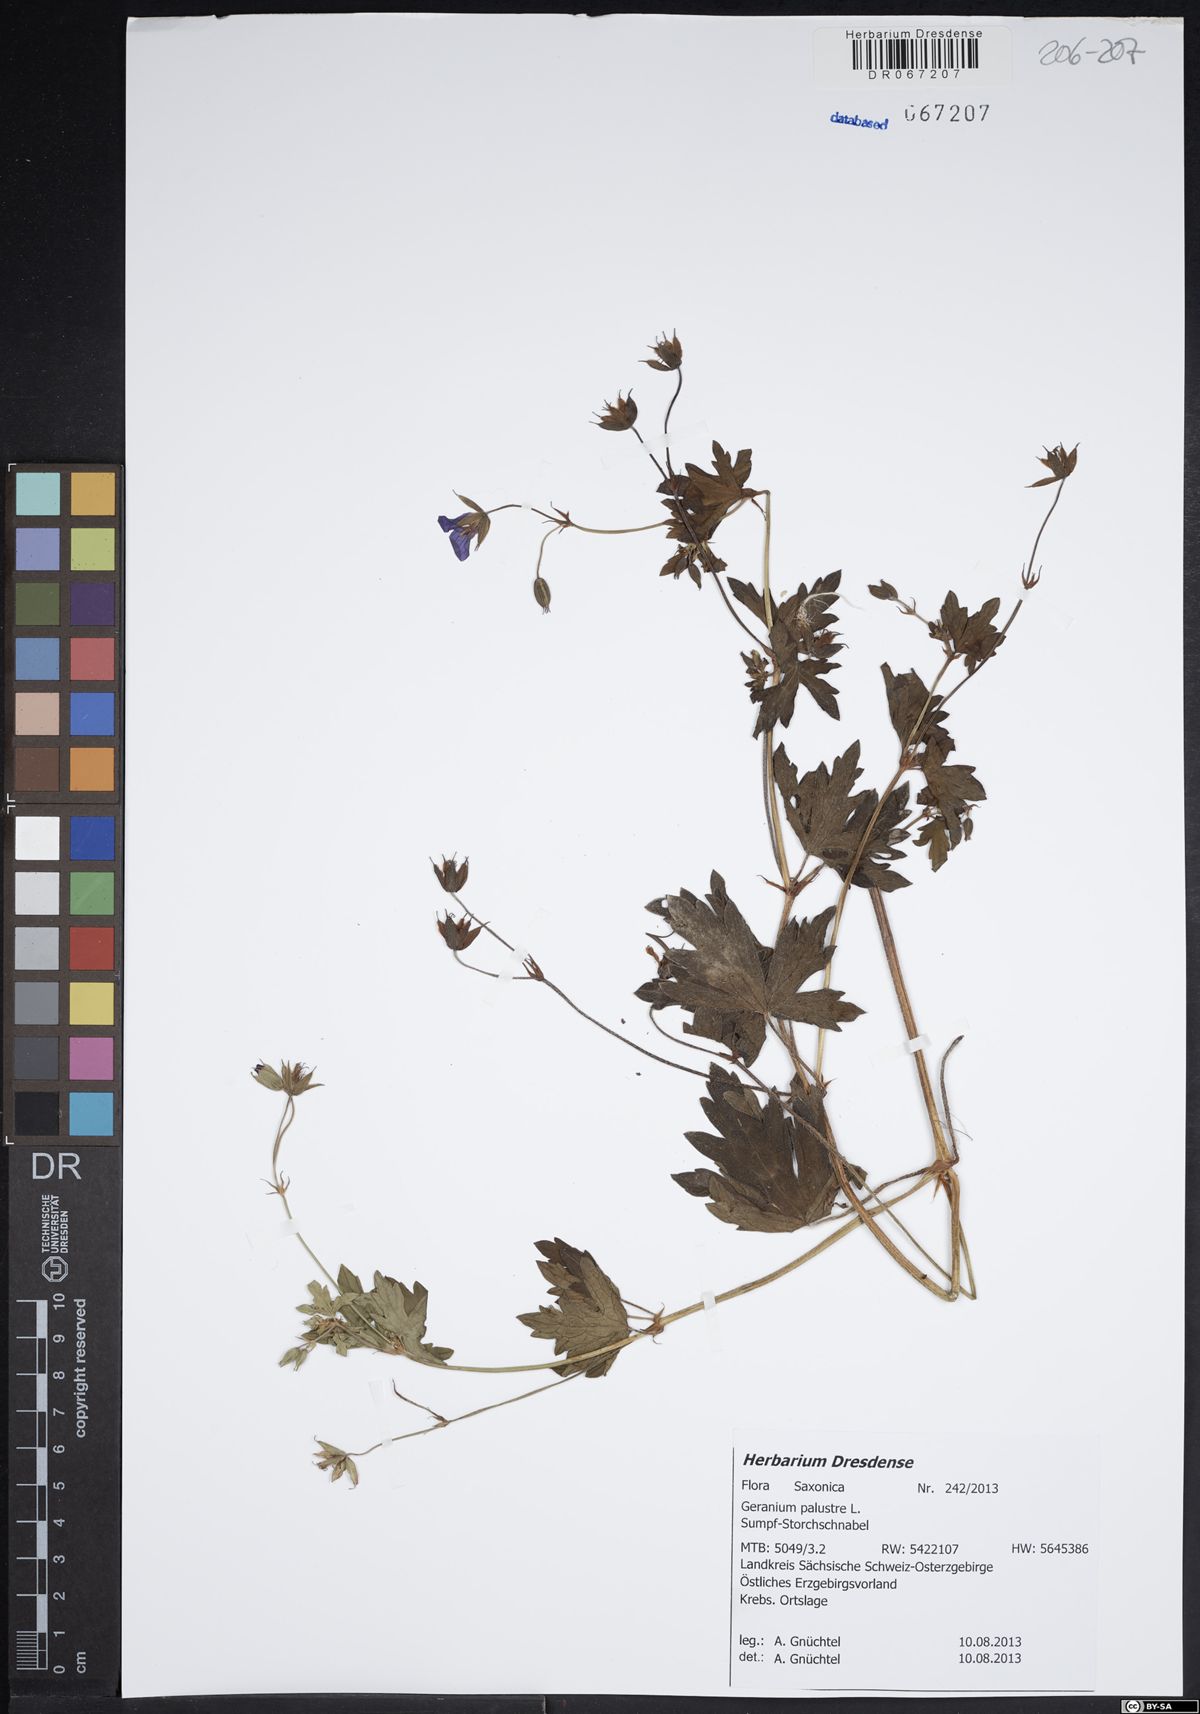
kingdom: Plantae
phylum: Tracheophyta
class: Magnoliopsida
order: Geraniales
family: Geraniaceae
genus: Geranium
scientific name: Geranium palustre
